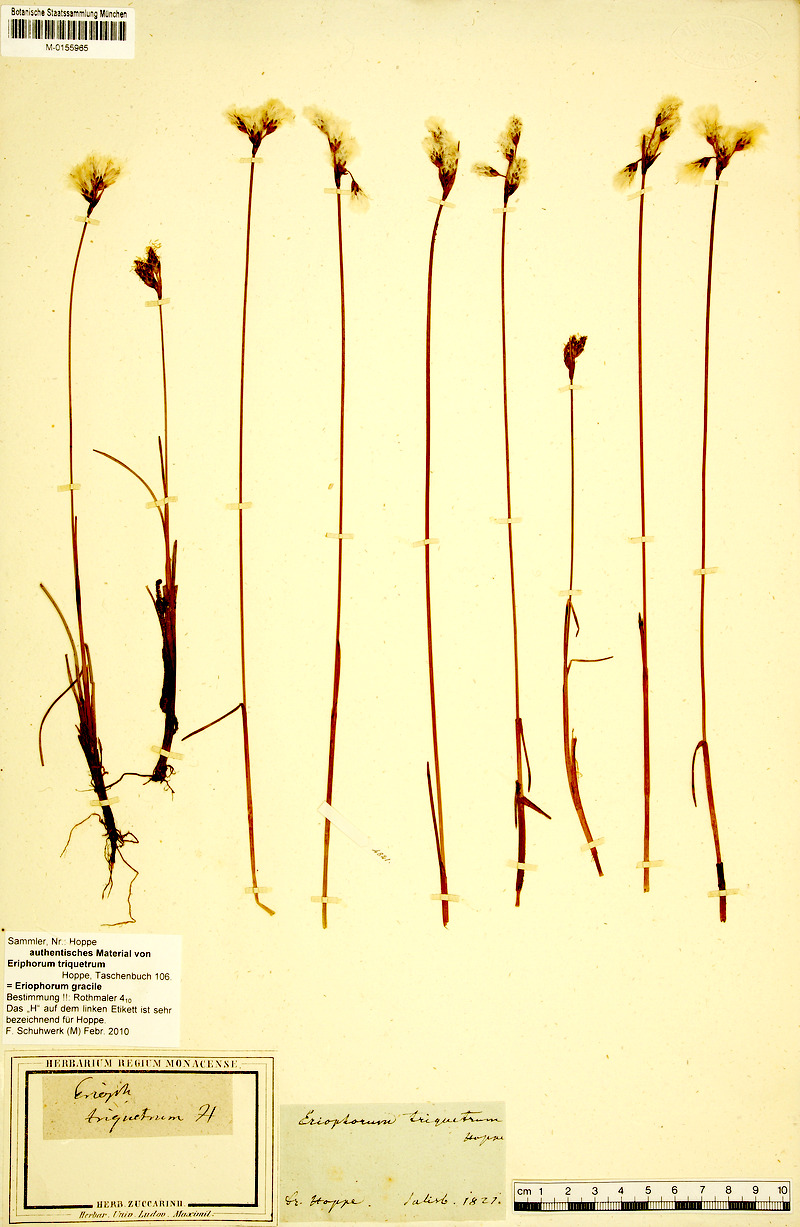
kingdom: Plantae
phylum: Tracheophyta
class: Liliopsida
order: Poales
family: Cyperaceae
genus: Eriophorum
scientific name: Eriophorum gracile
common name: Slender cottongrass
